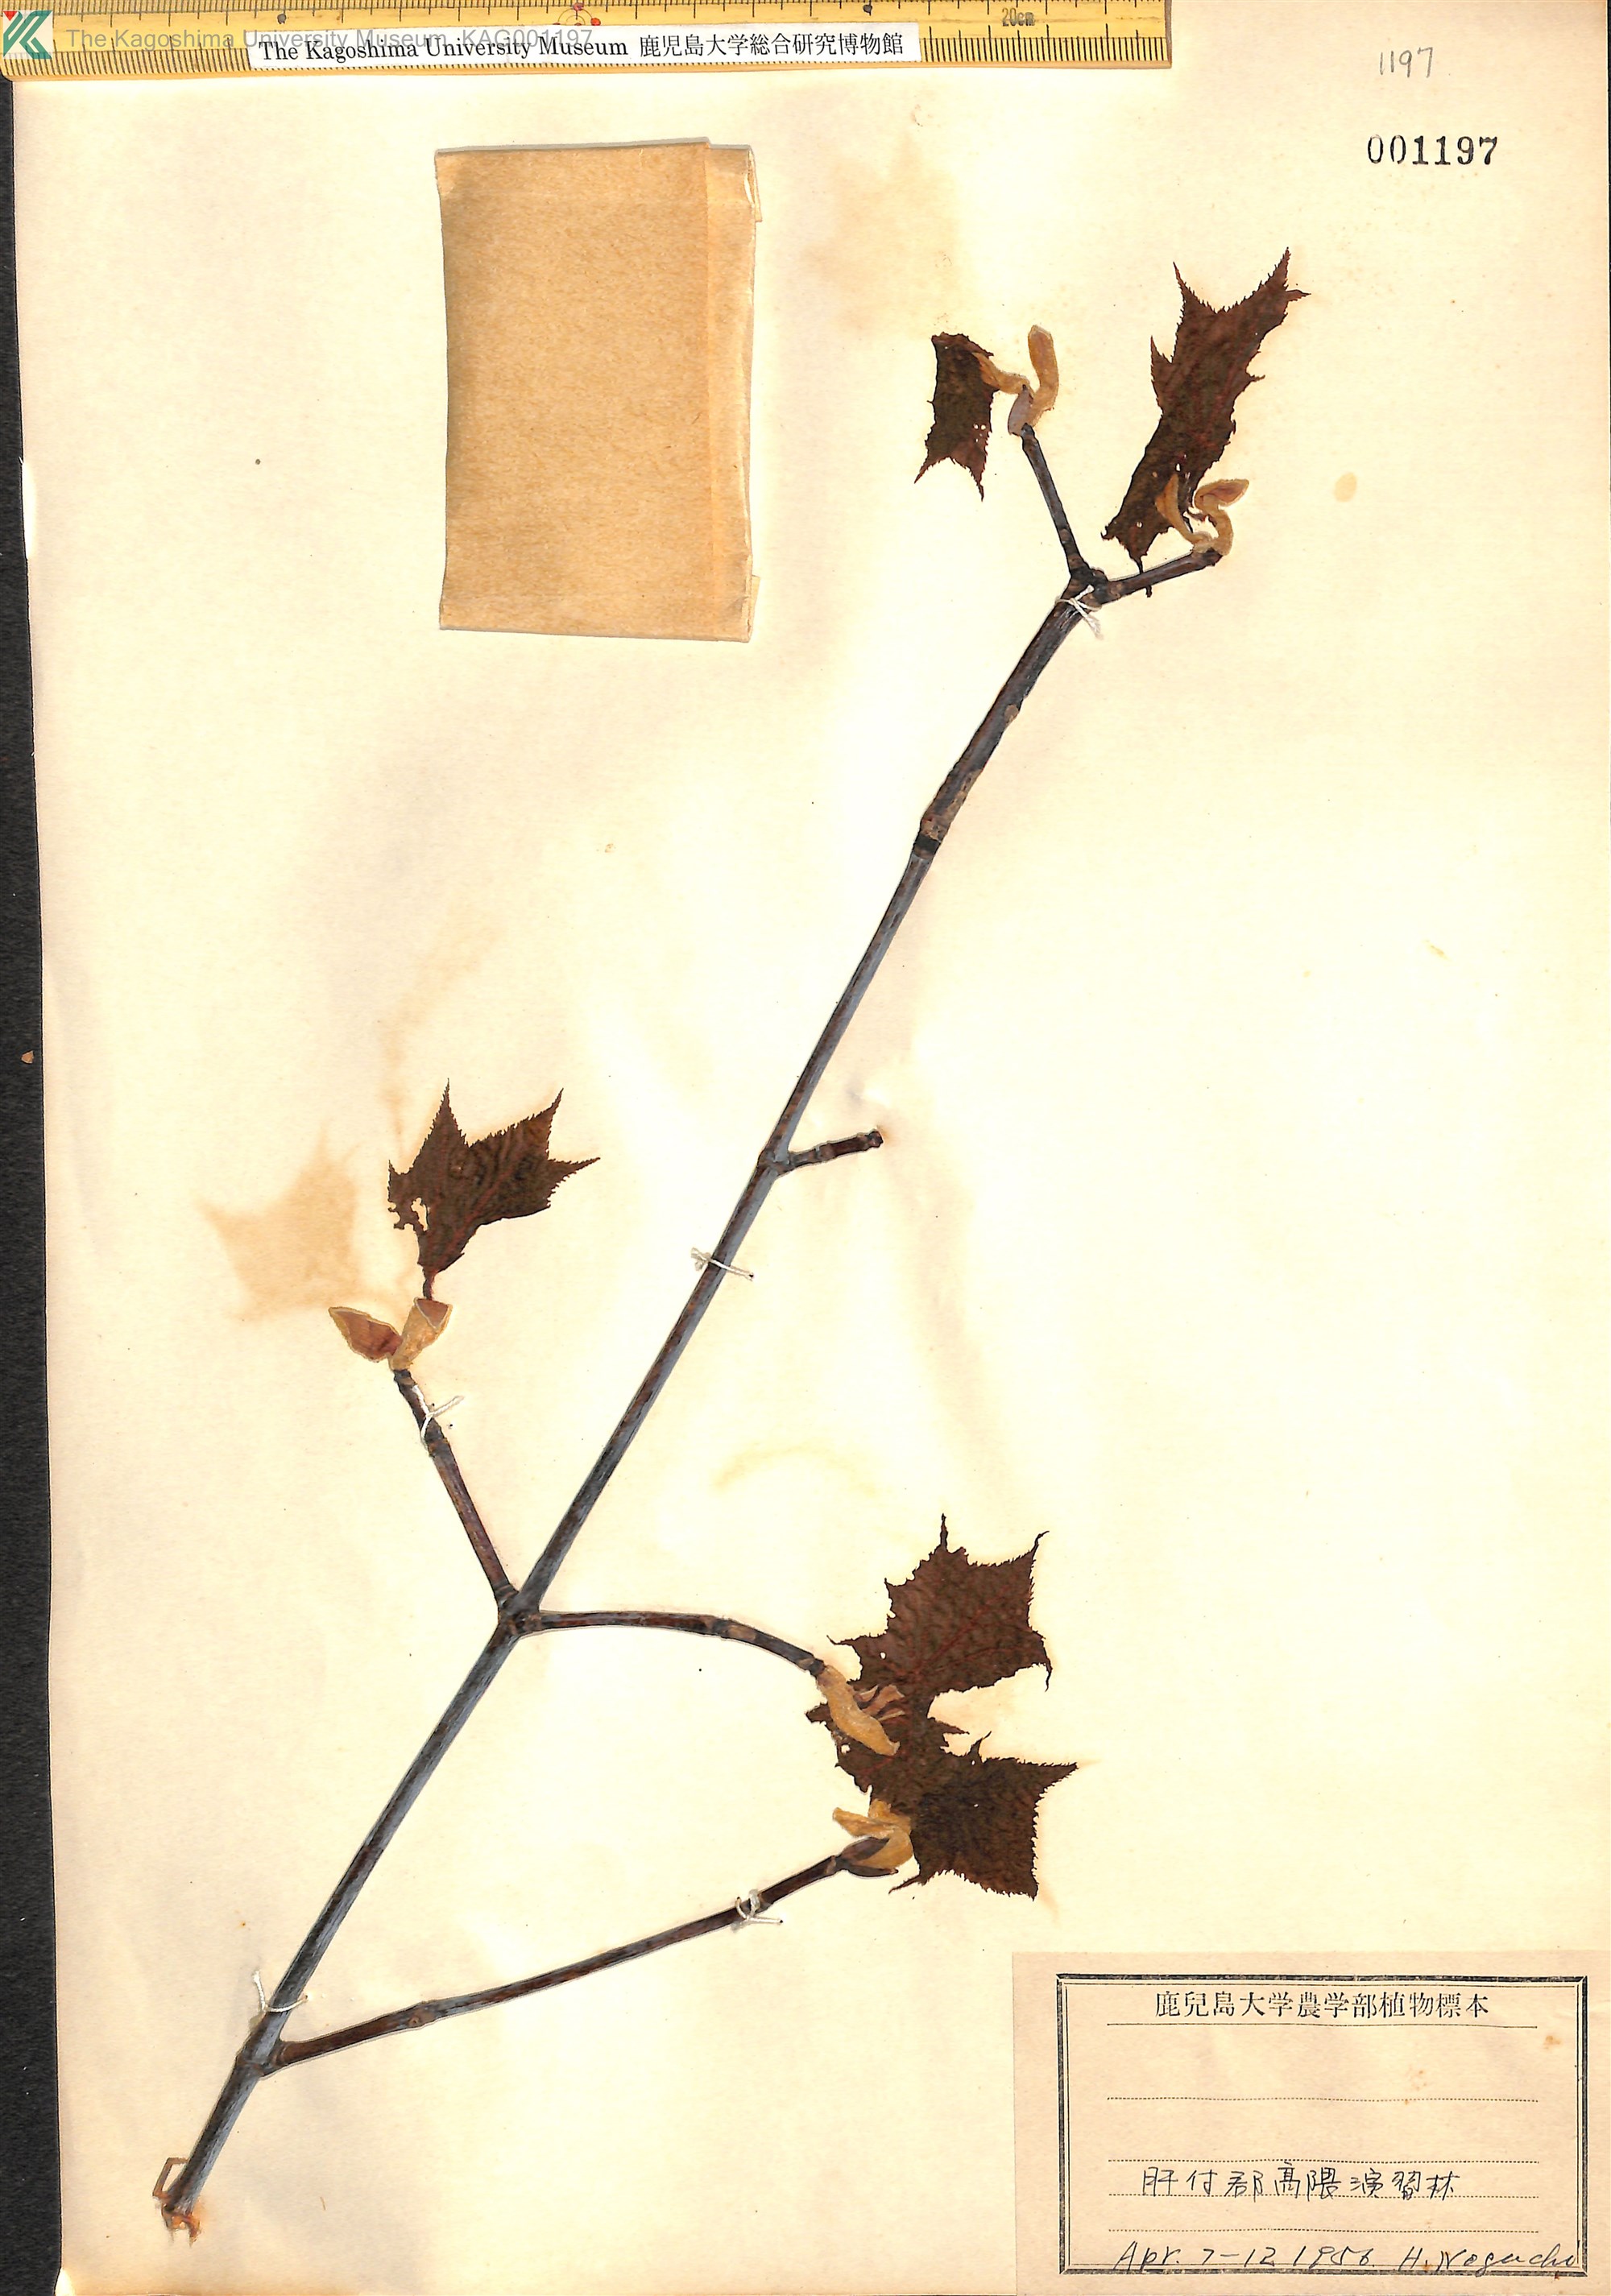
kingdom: Plantae
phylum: Tracheophyta
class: Magnoliopsida
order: Sapindales
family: Sapindaceae
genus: Acer
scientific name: Acer rufinerve
